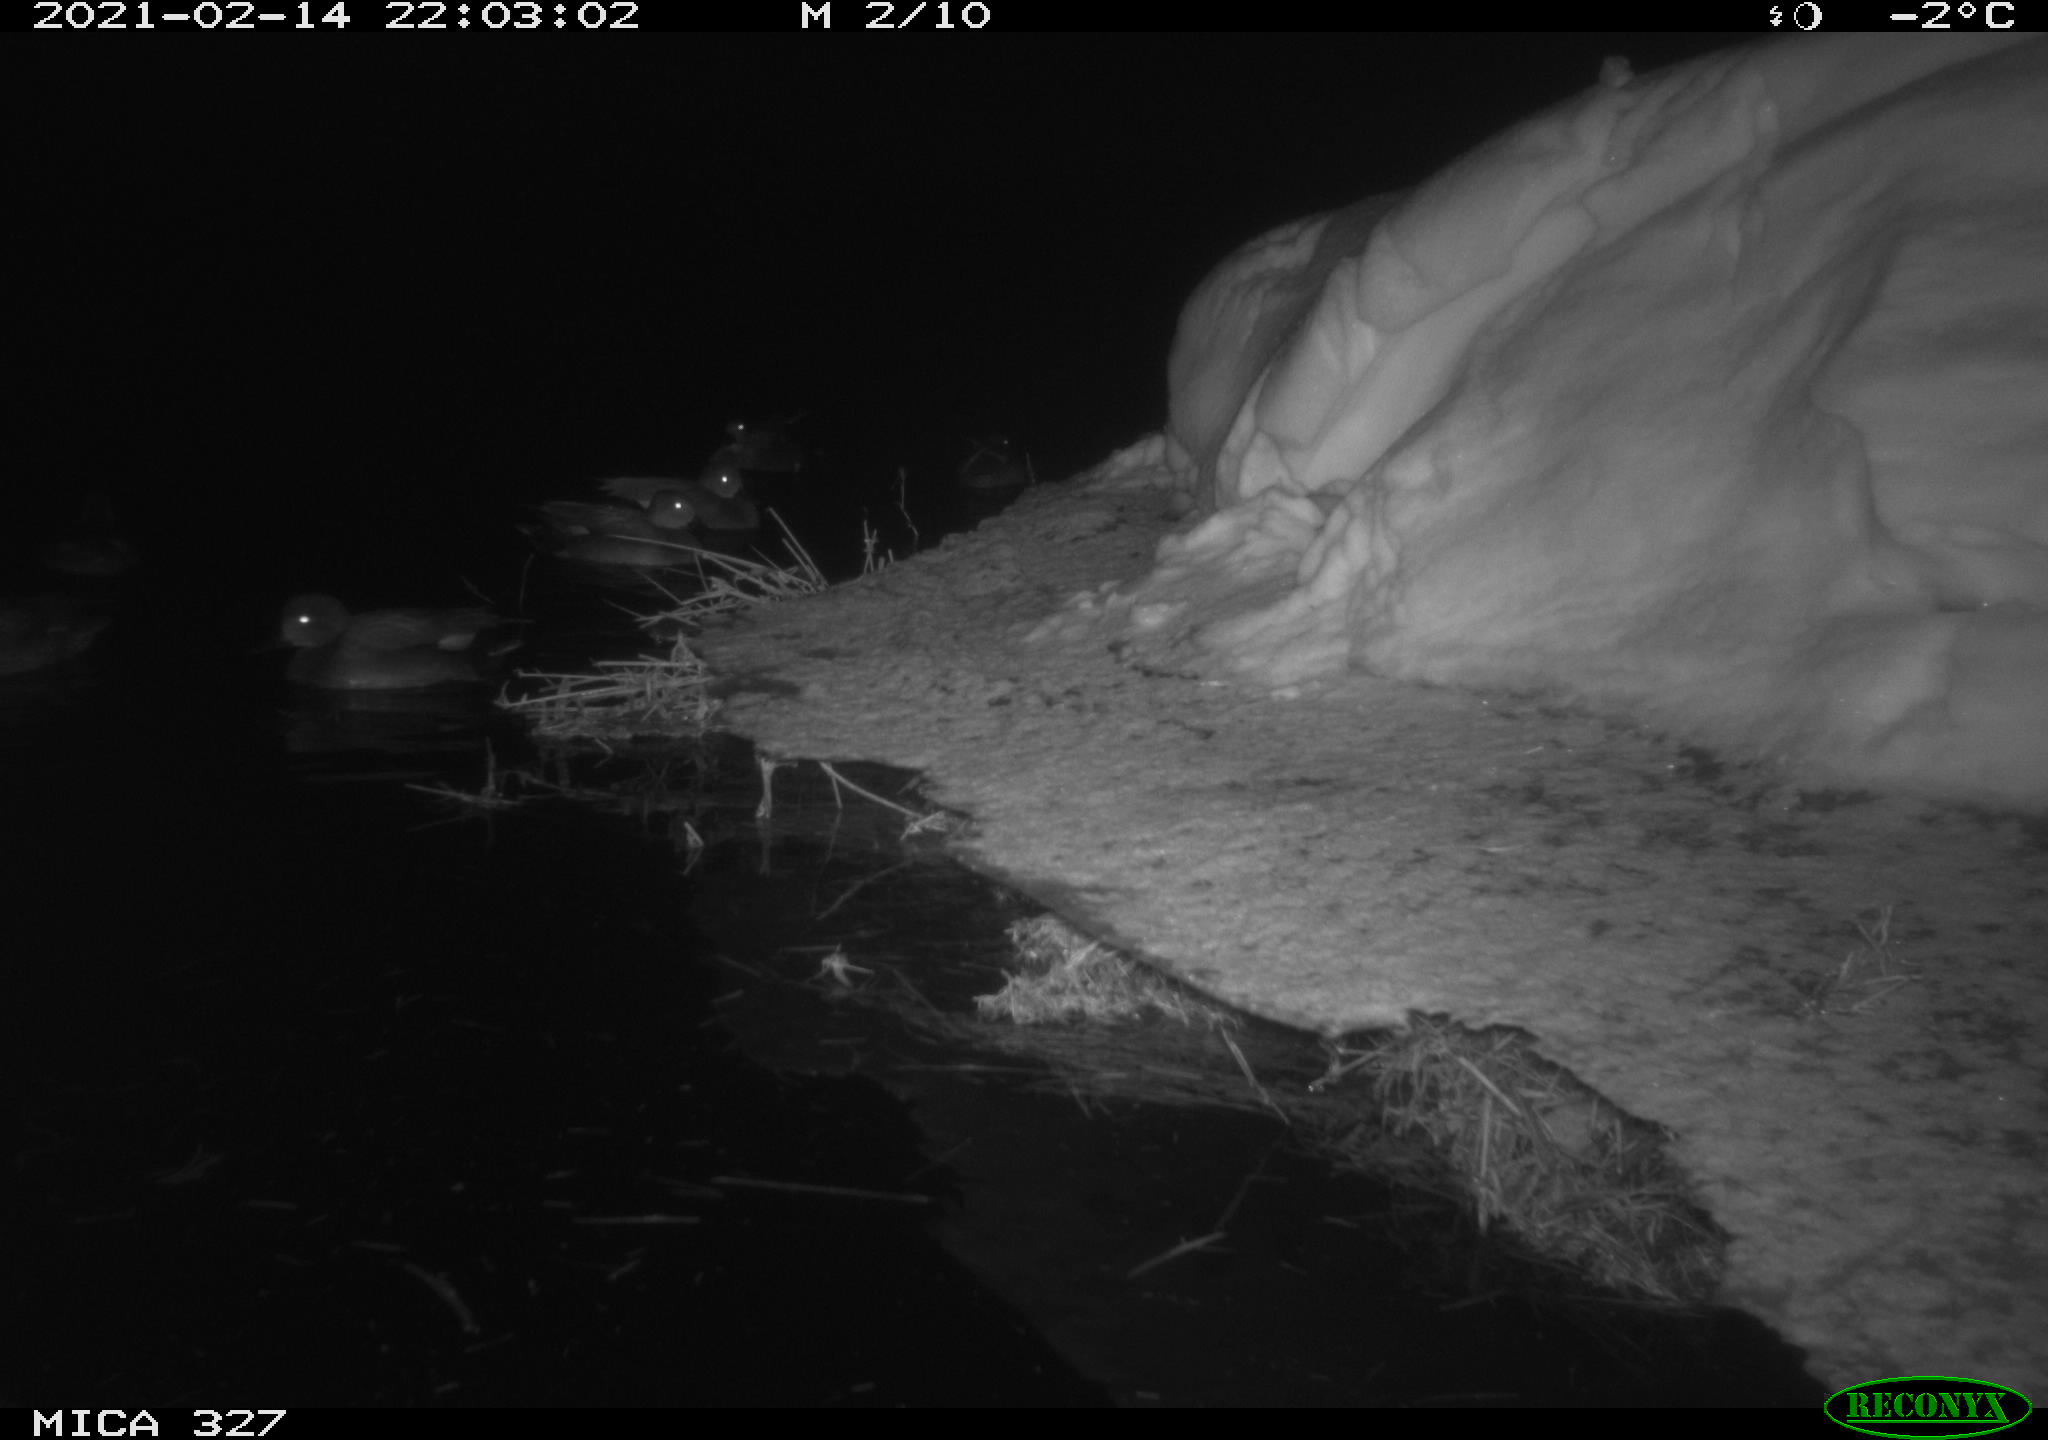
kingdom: Animalia
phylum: Chordata
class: Aves
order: Anseriformes
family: Anatidae
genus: Anas
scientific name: Anas
